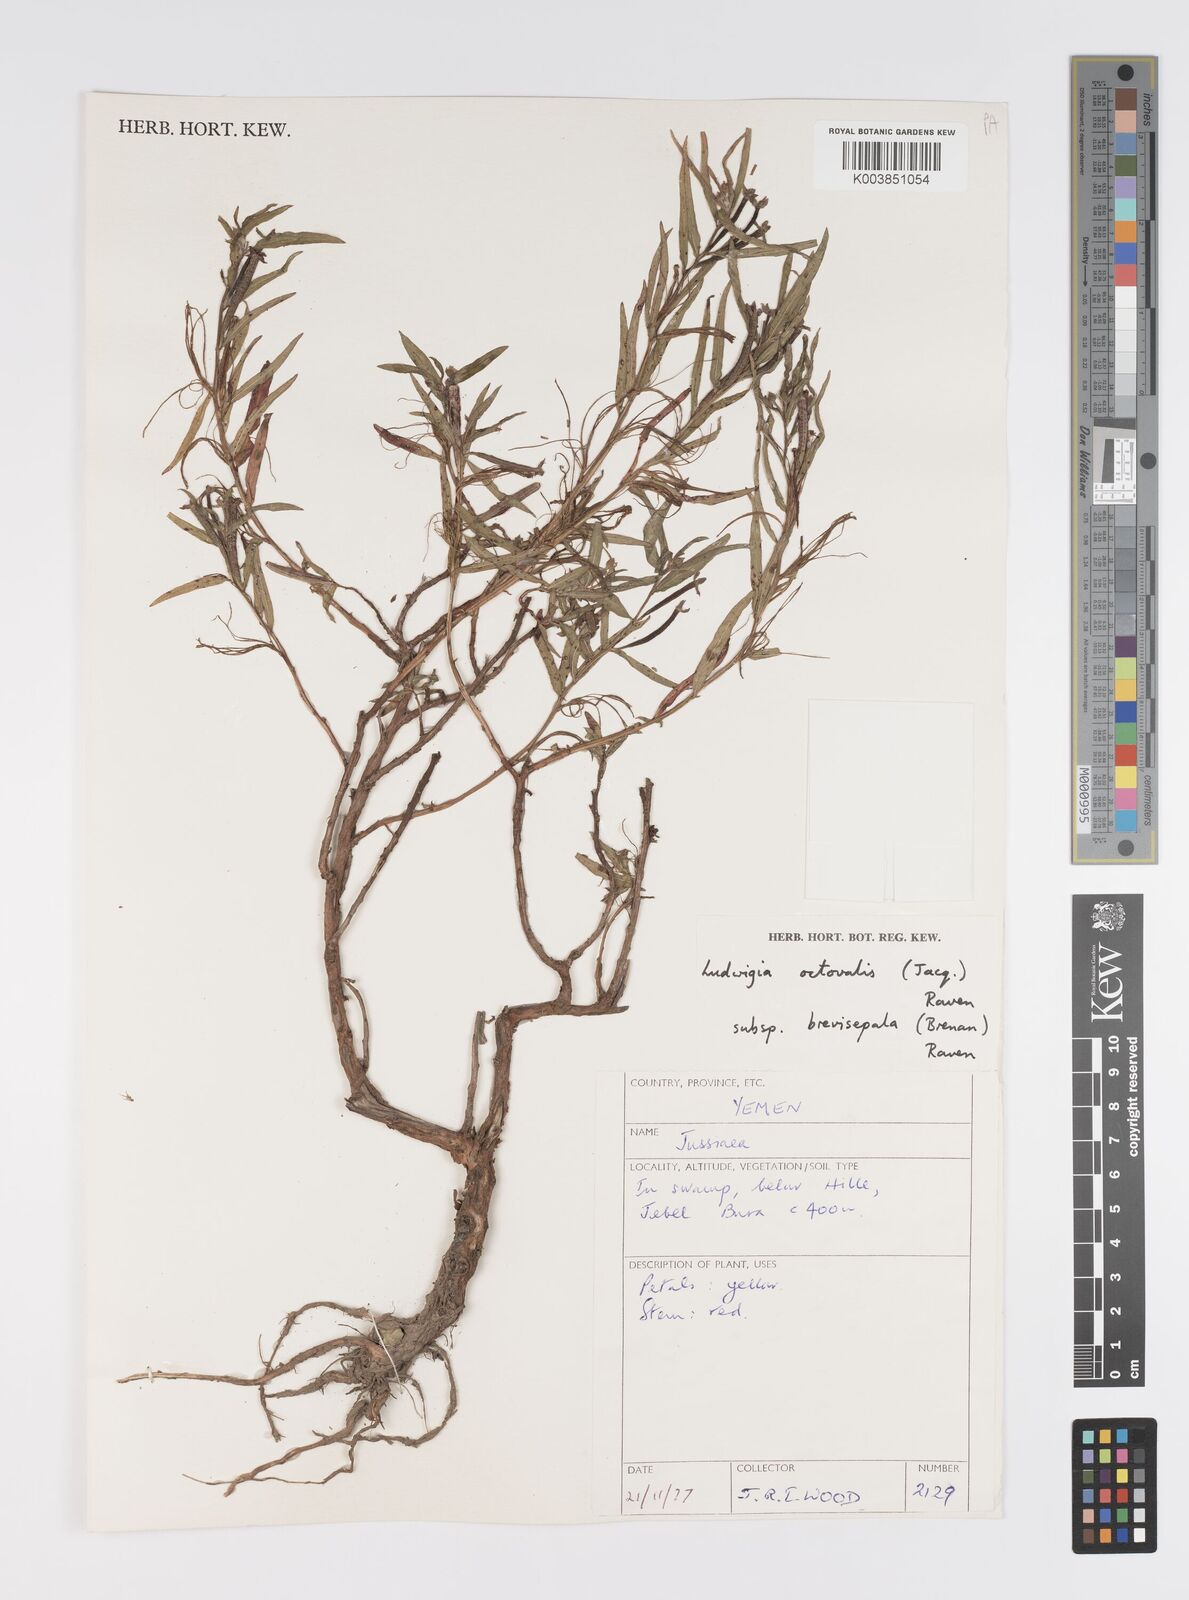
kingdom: Plantae
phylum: Tracheophyta
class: Magnoliopsida
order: Myrtales
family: Onagraceae
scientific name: Onagraceae
